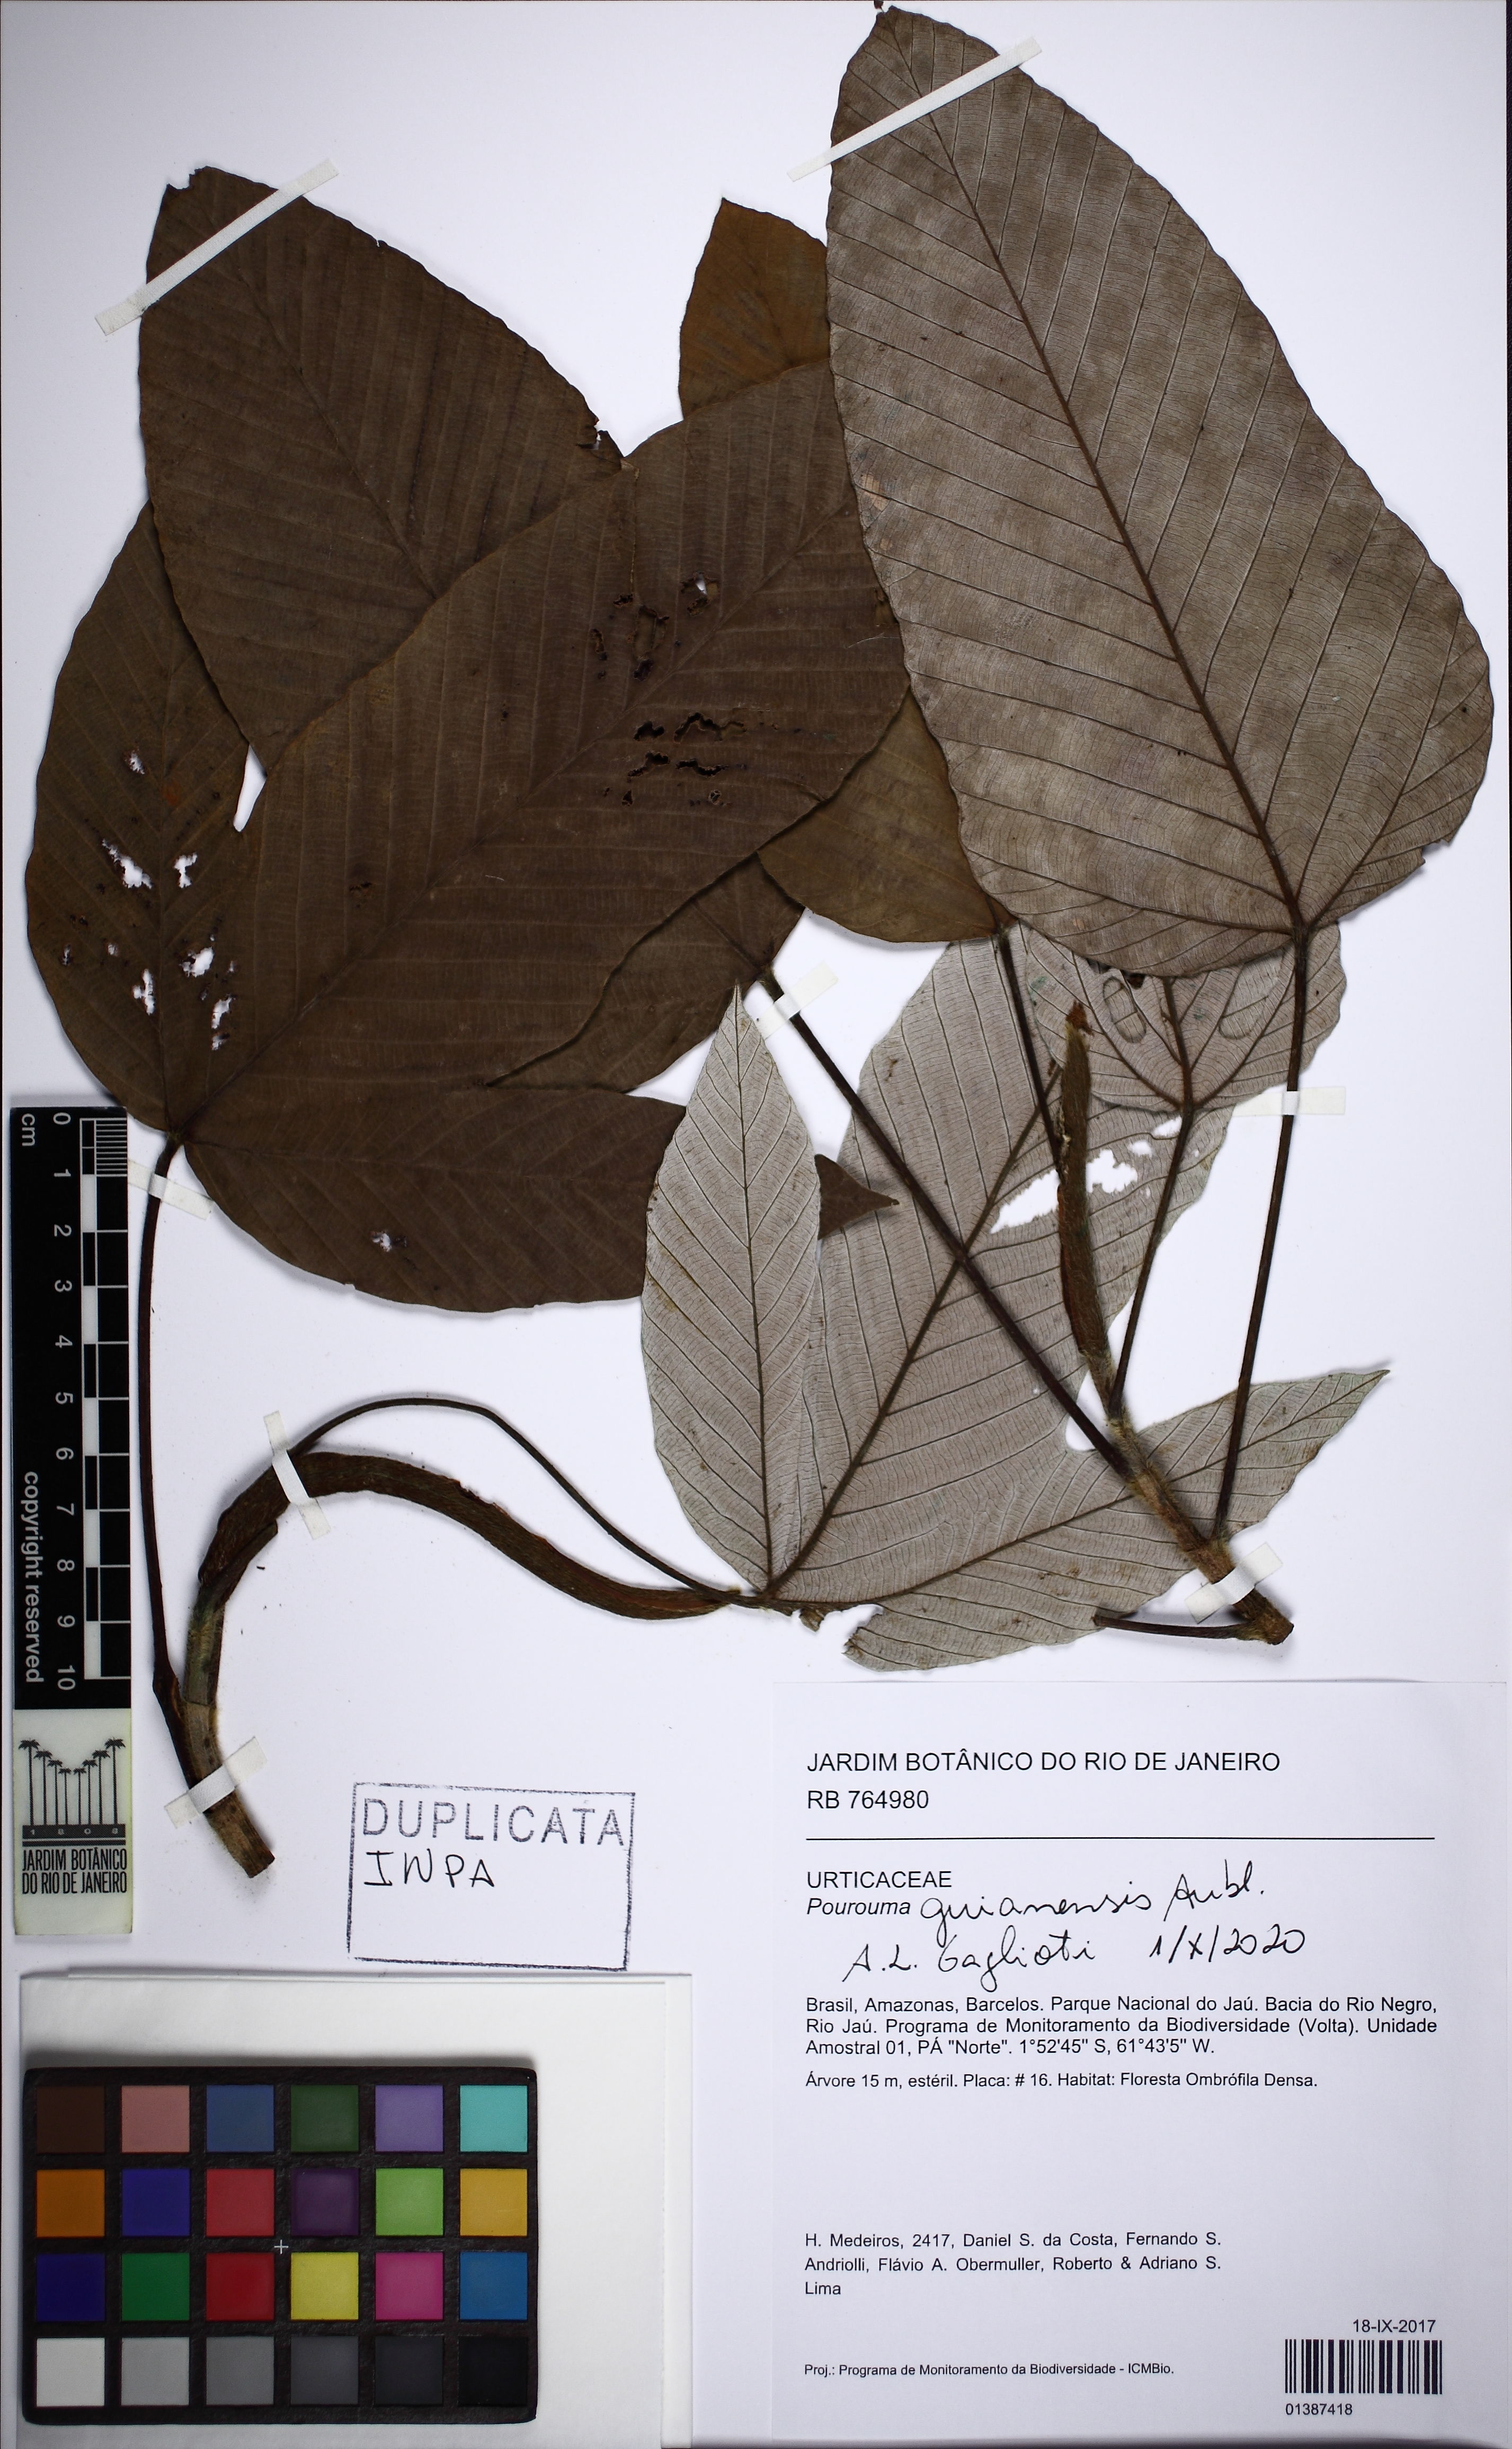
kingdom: Plantae
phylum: Tracheophyta
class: Magnoliopsida
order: Rosales
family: Urticaceae
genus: Pourouma
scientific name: Pourouma guianensis
